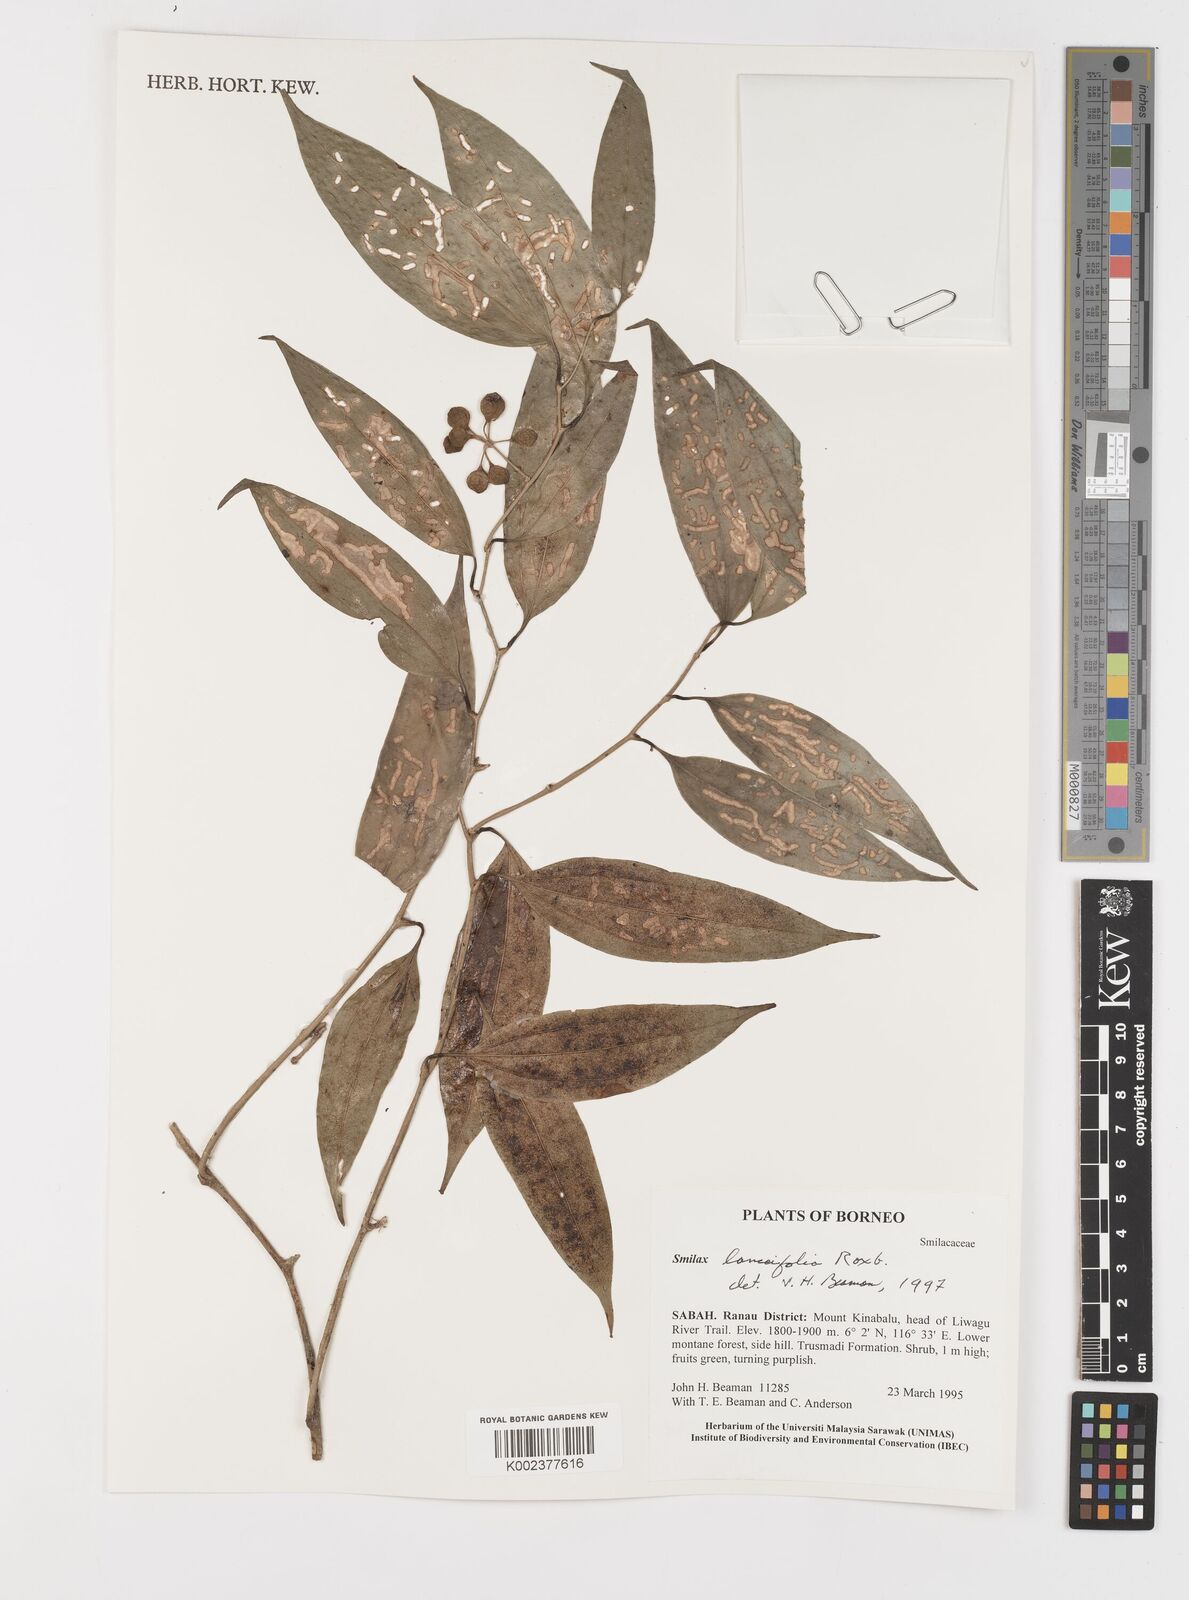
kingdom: Plantae
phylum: Tracheophyta
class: Liliopsida
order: Liliales
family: Smilacaceae
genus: Smilax
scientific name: Smilax lanceifolia
